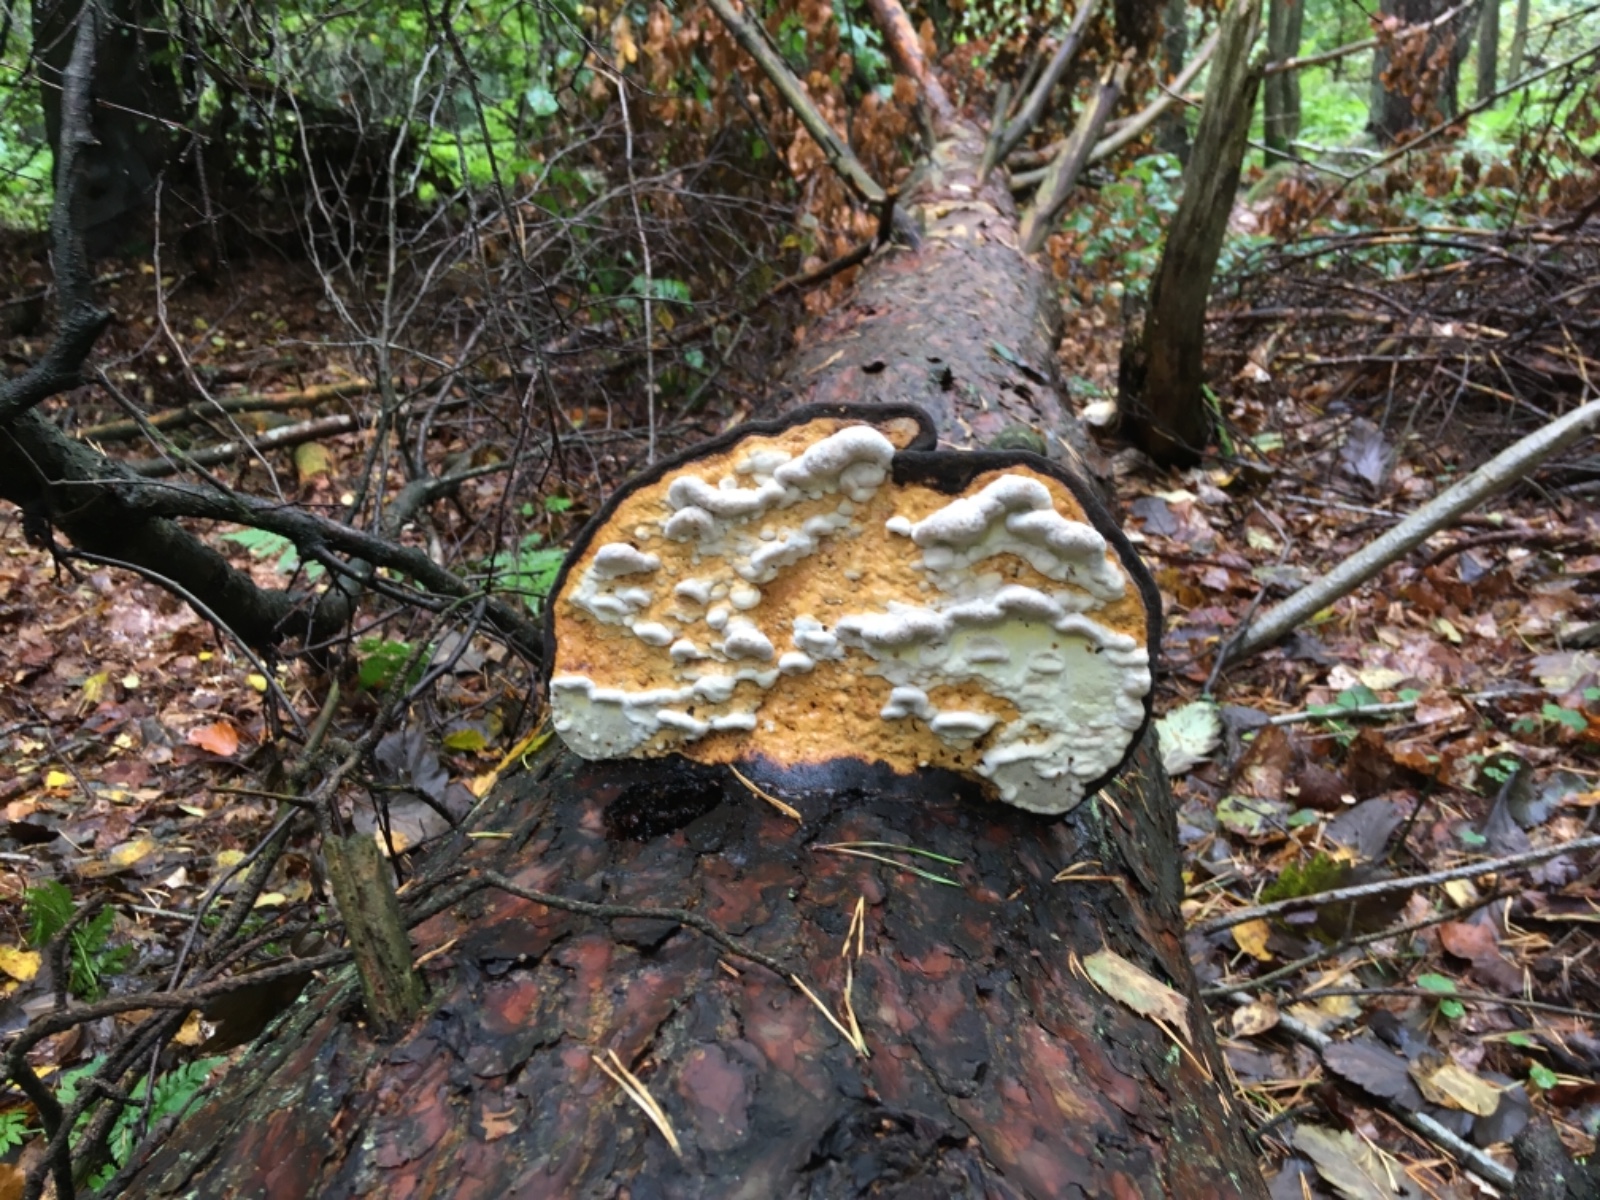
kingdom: Fungi
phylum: Basidiomycota
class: Agaricomycetes
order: Polyporales
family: Fomitopsidaceae
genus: Fomitopsis
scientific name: Fomitopsis pinicola
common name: randbæltet hovporesvamp
